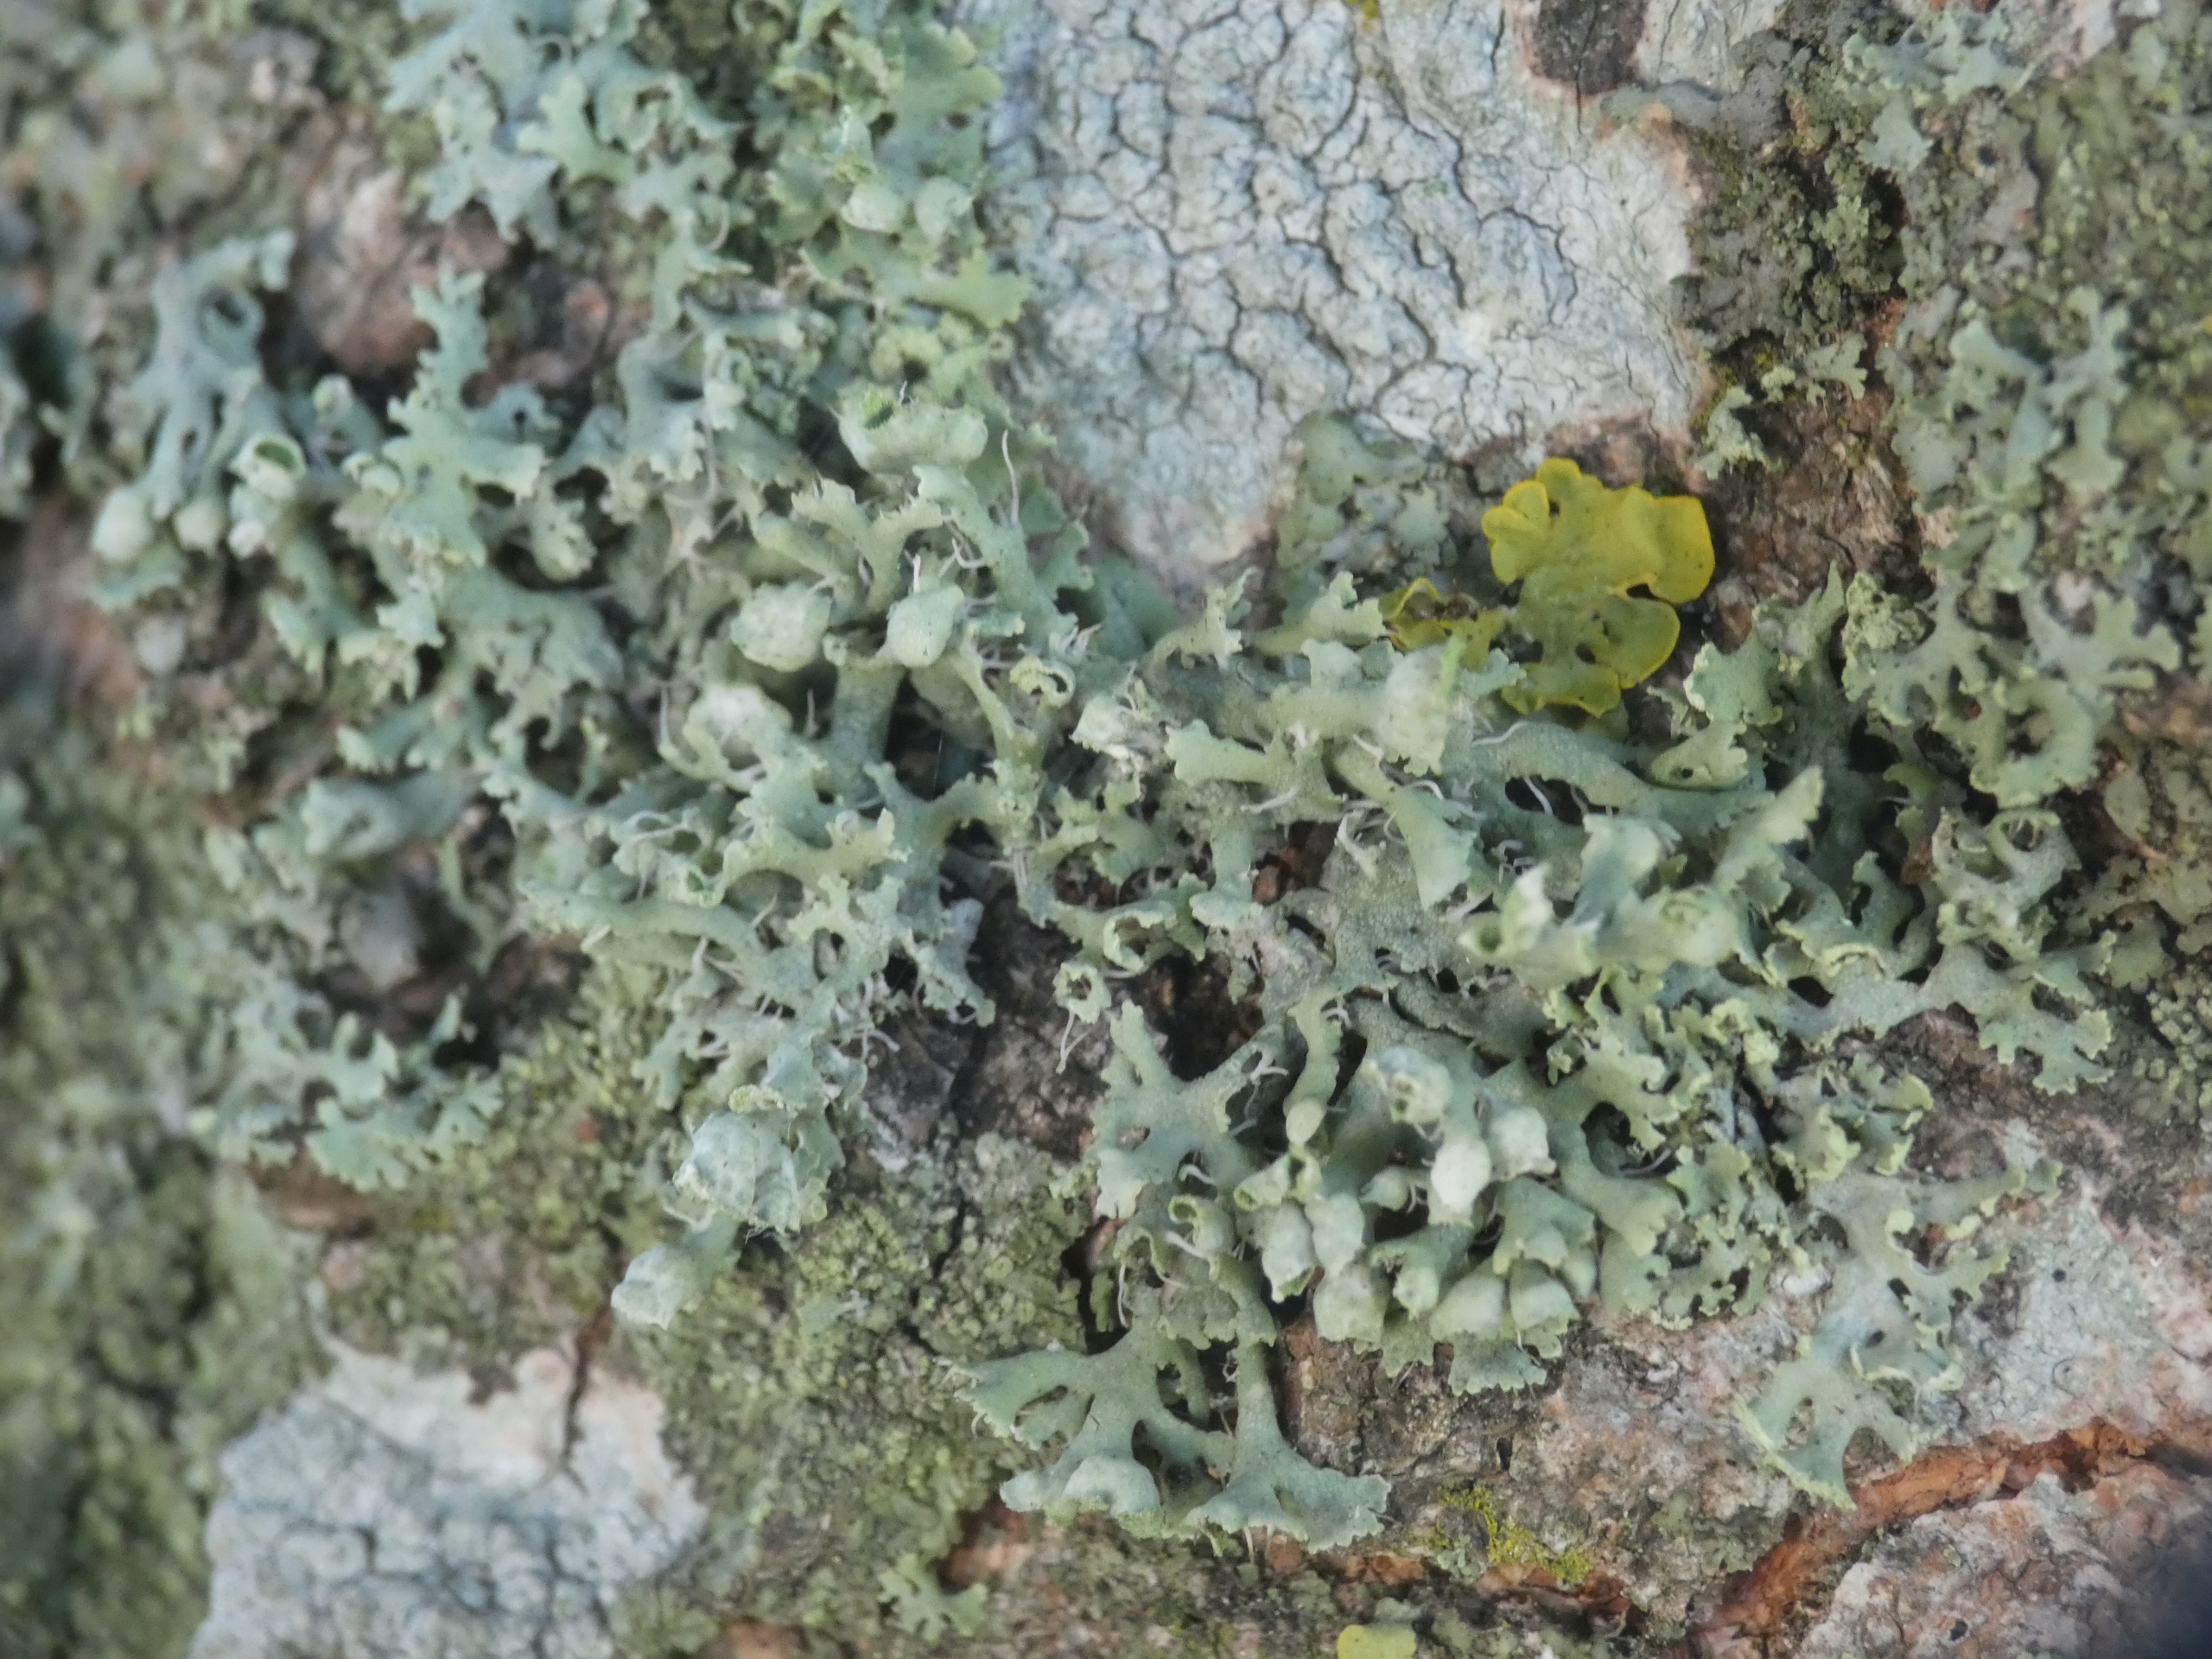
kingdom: Fungi
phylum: Ascomycota
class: Lecanoromycetes
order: Caliciales
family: Physciaceae
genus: Physcia
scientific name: Physcia adscendens
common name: Hætte-rosetlav
